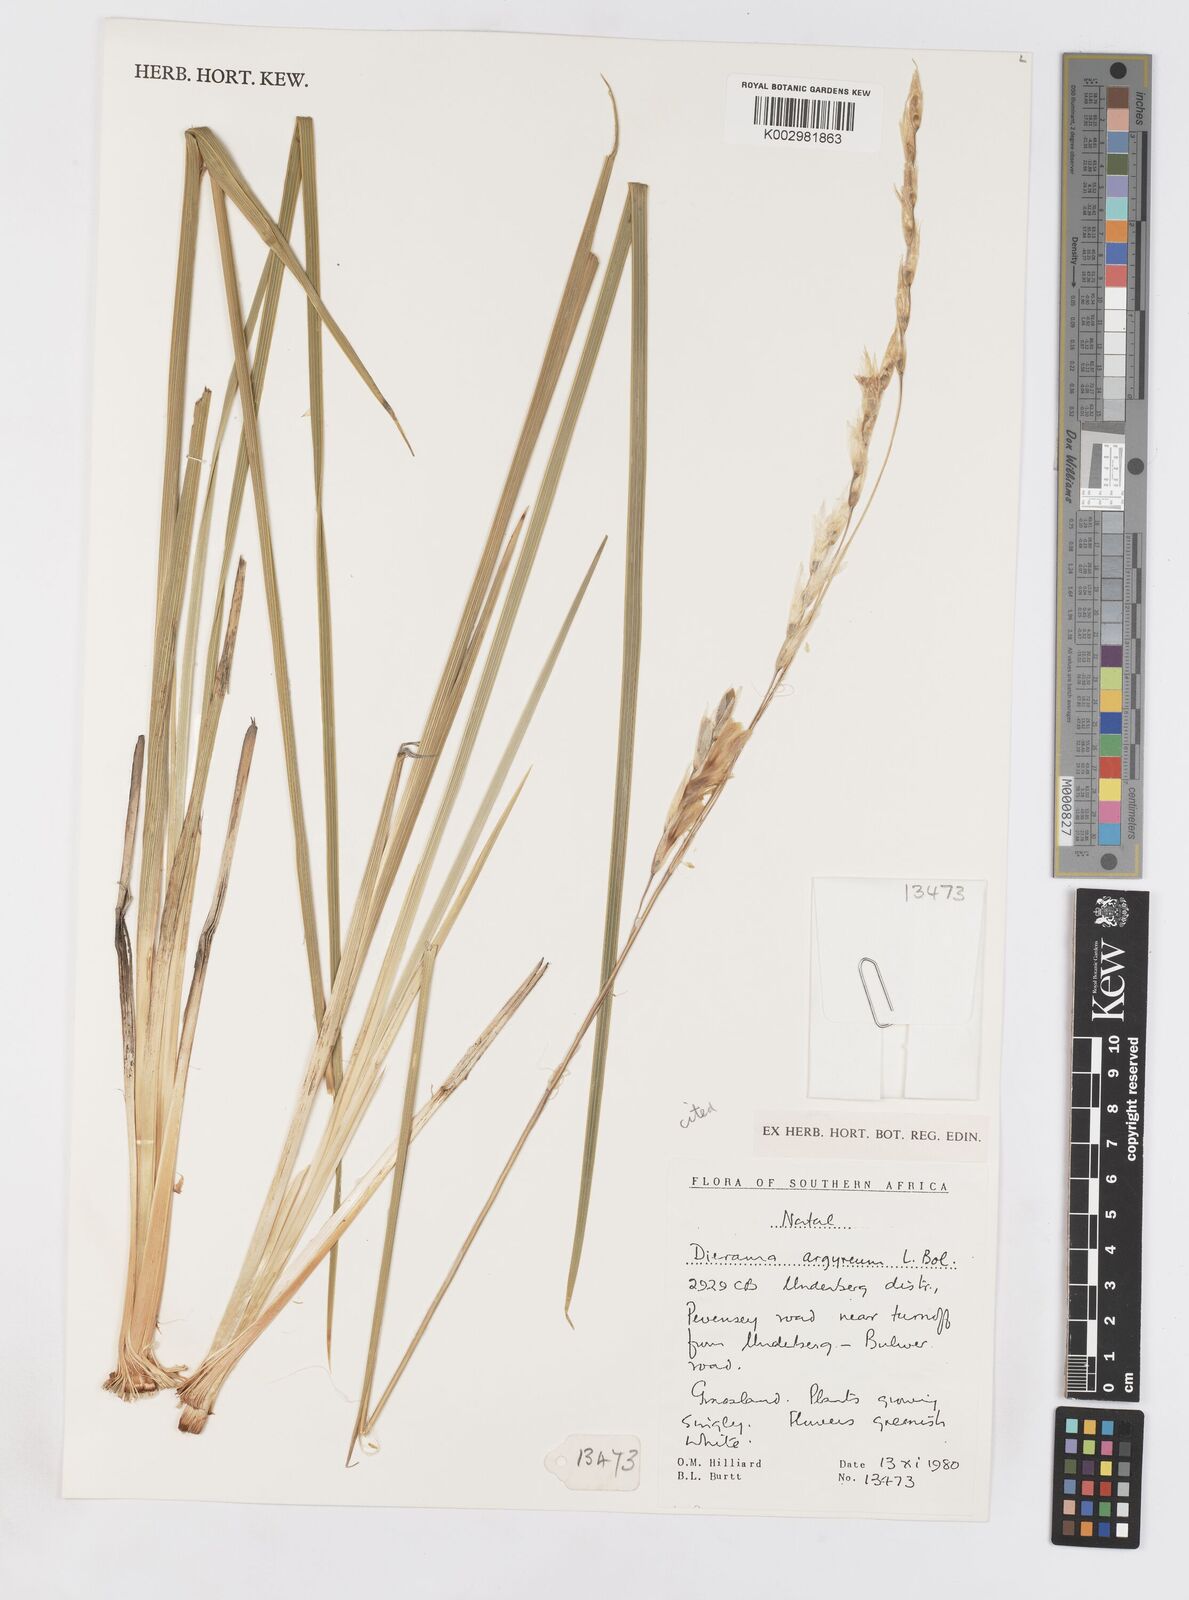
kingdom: Plantae
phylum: Tracheophyta
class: Liliopsida
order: Asparagales
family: Iridaceae
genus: Dierama
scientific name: Dierama argyreum
